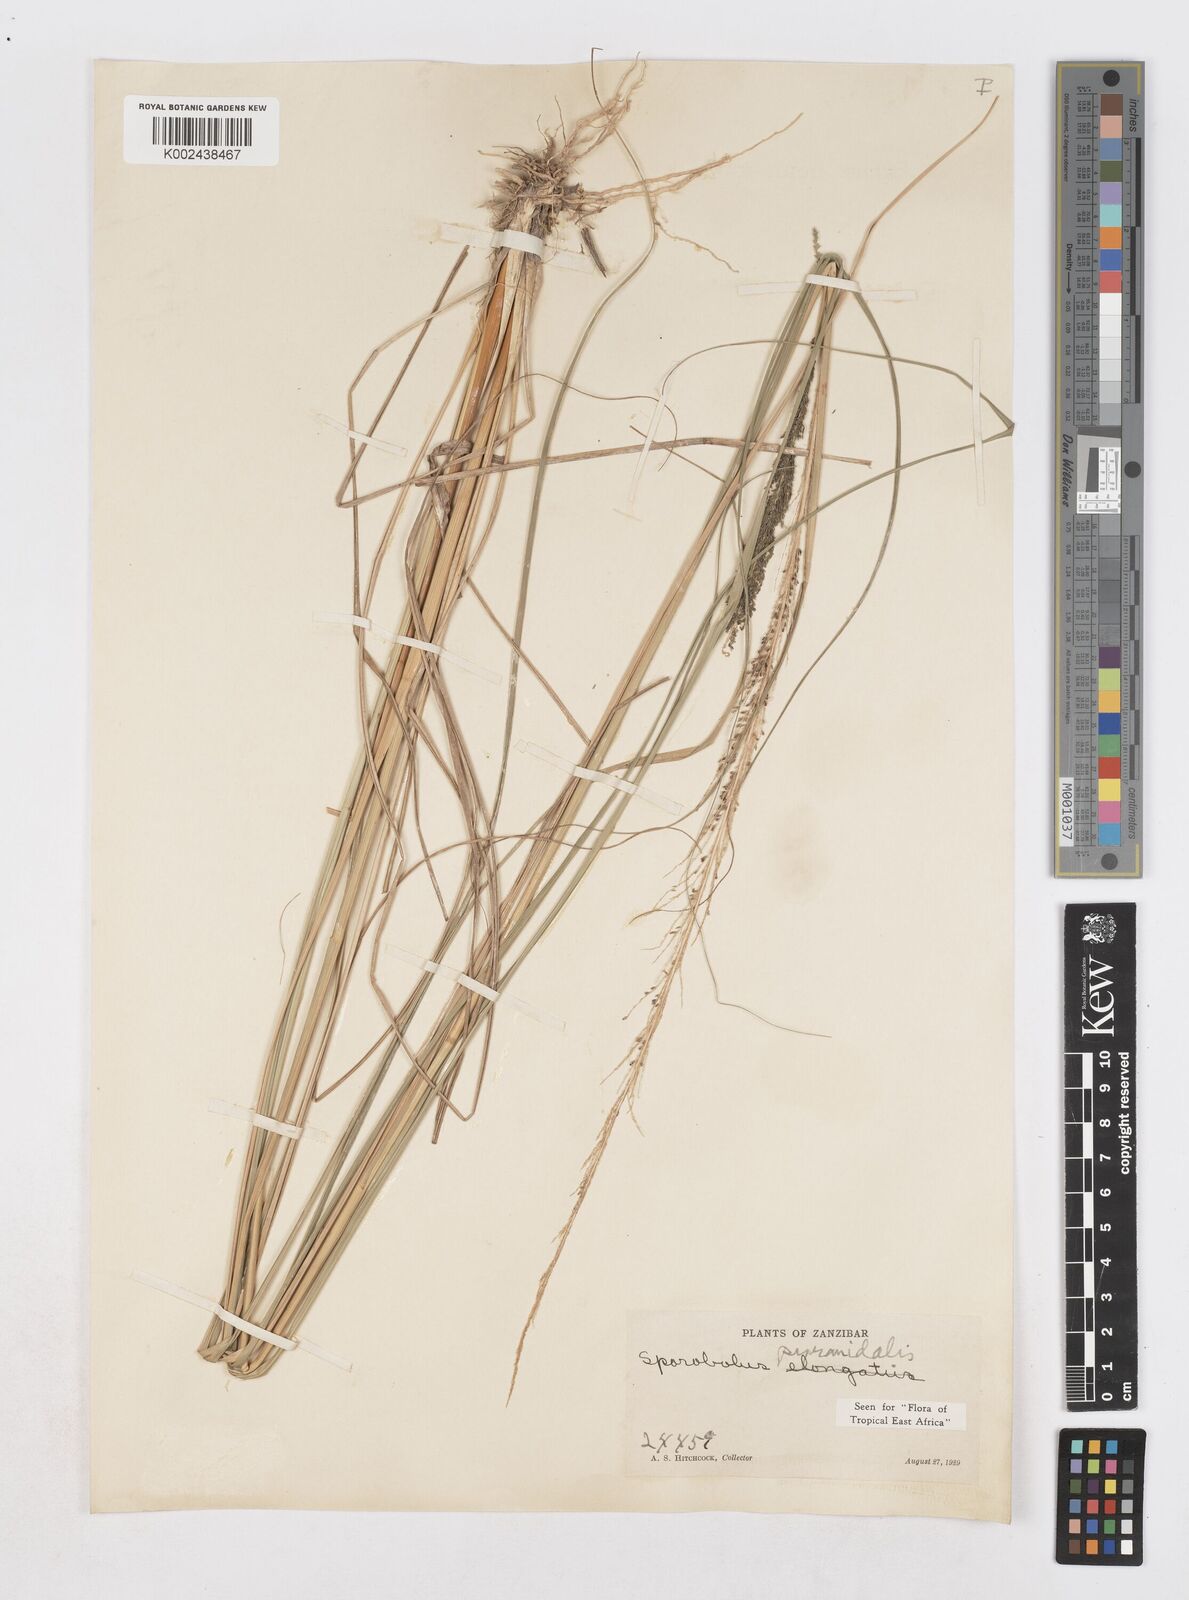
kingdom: Plantae
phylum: Tracheophyta
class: Liliopsida
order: Poales
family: Poaceae
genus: Sporobolus
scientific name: Sporobolus pyramidalis
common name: West indian dropseed
